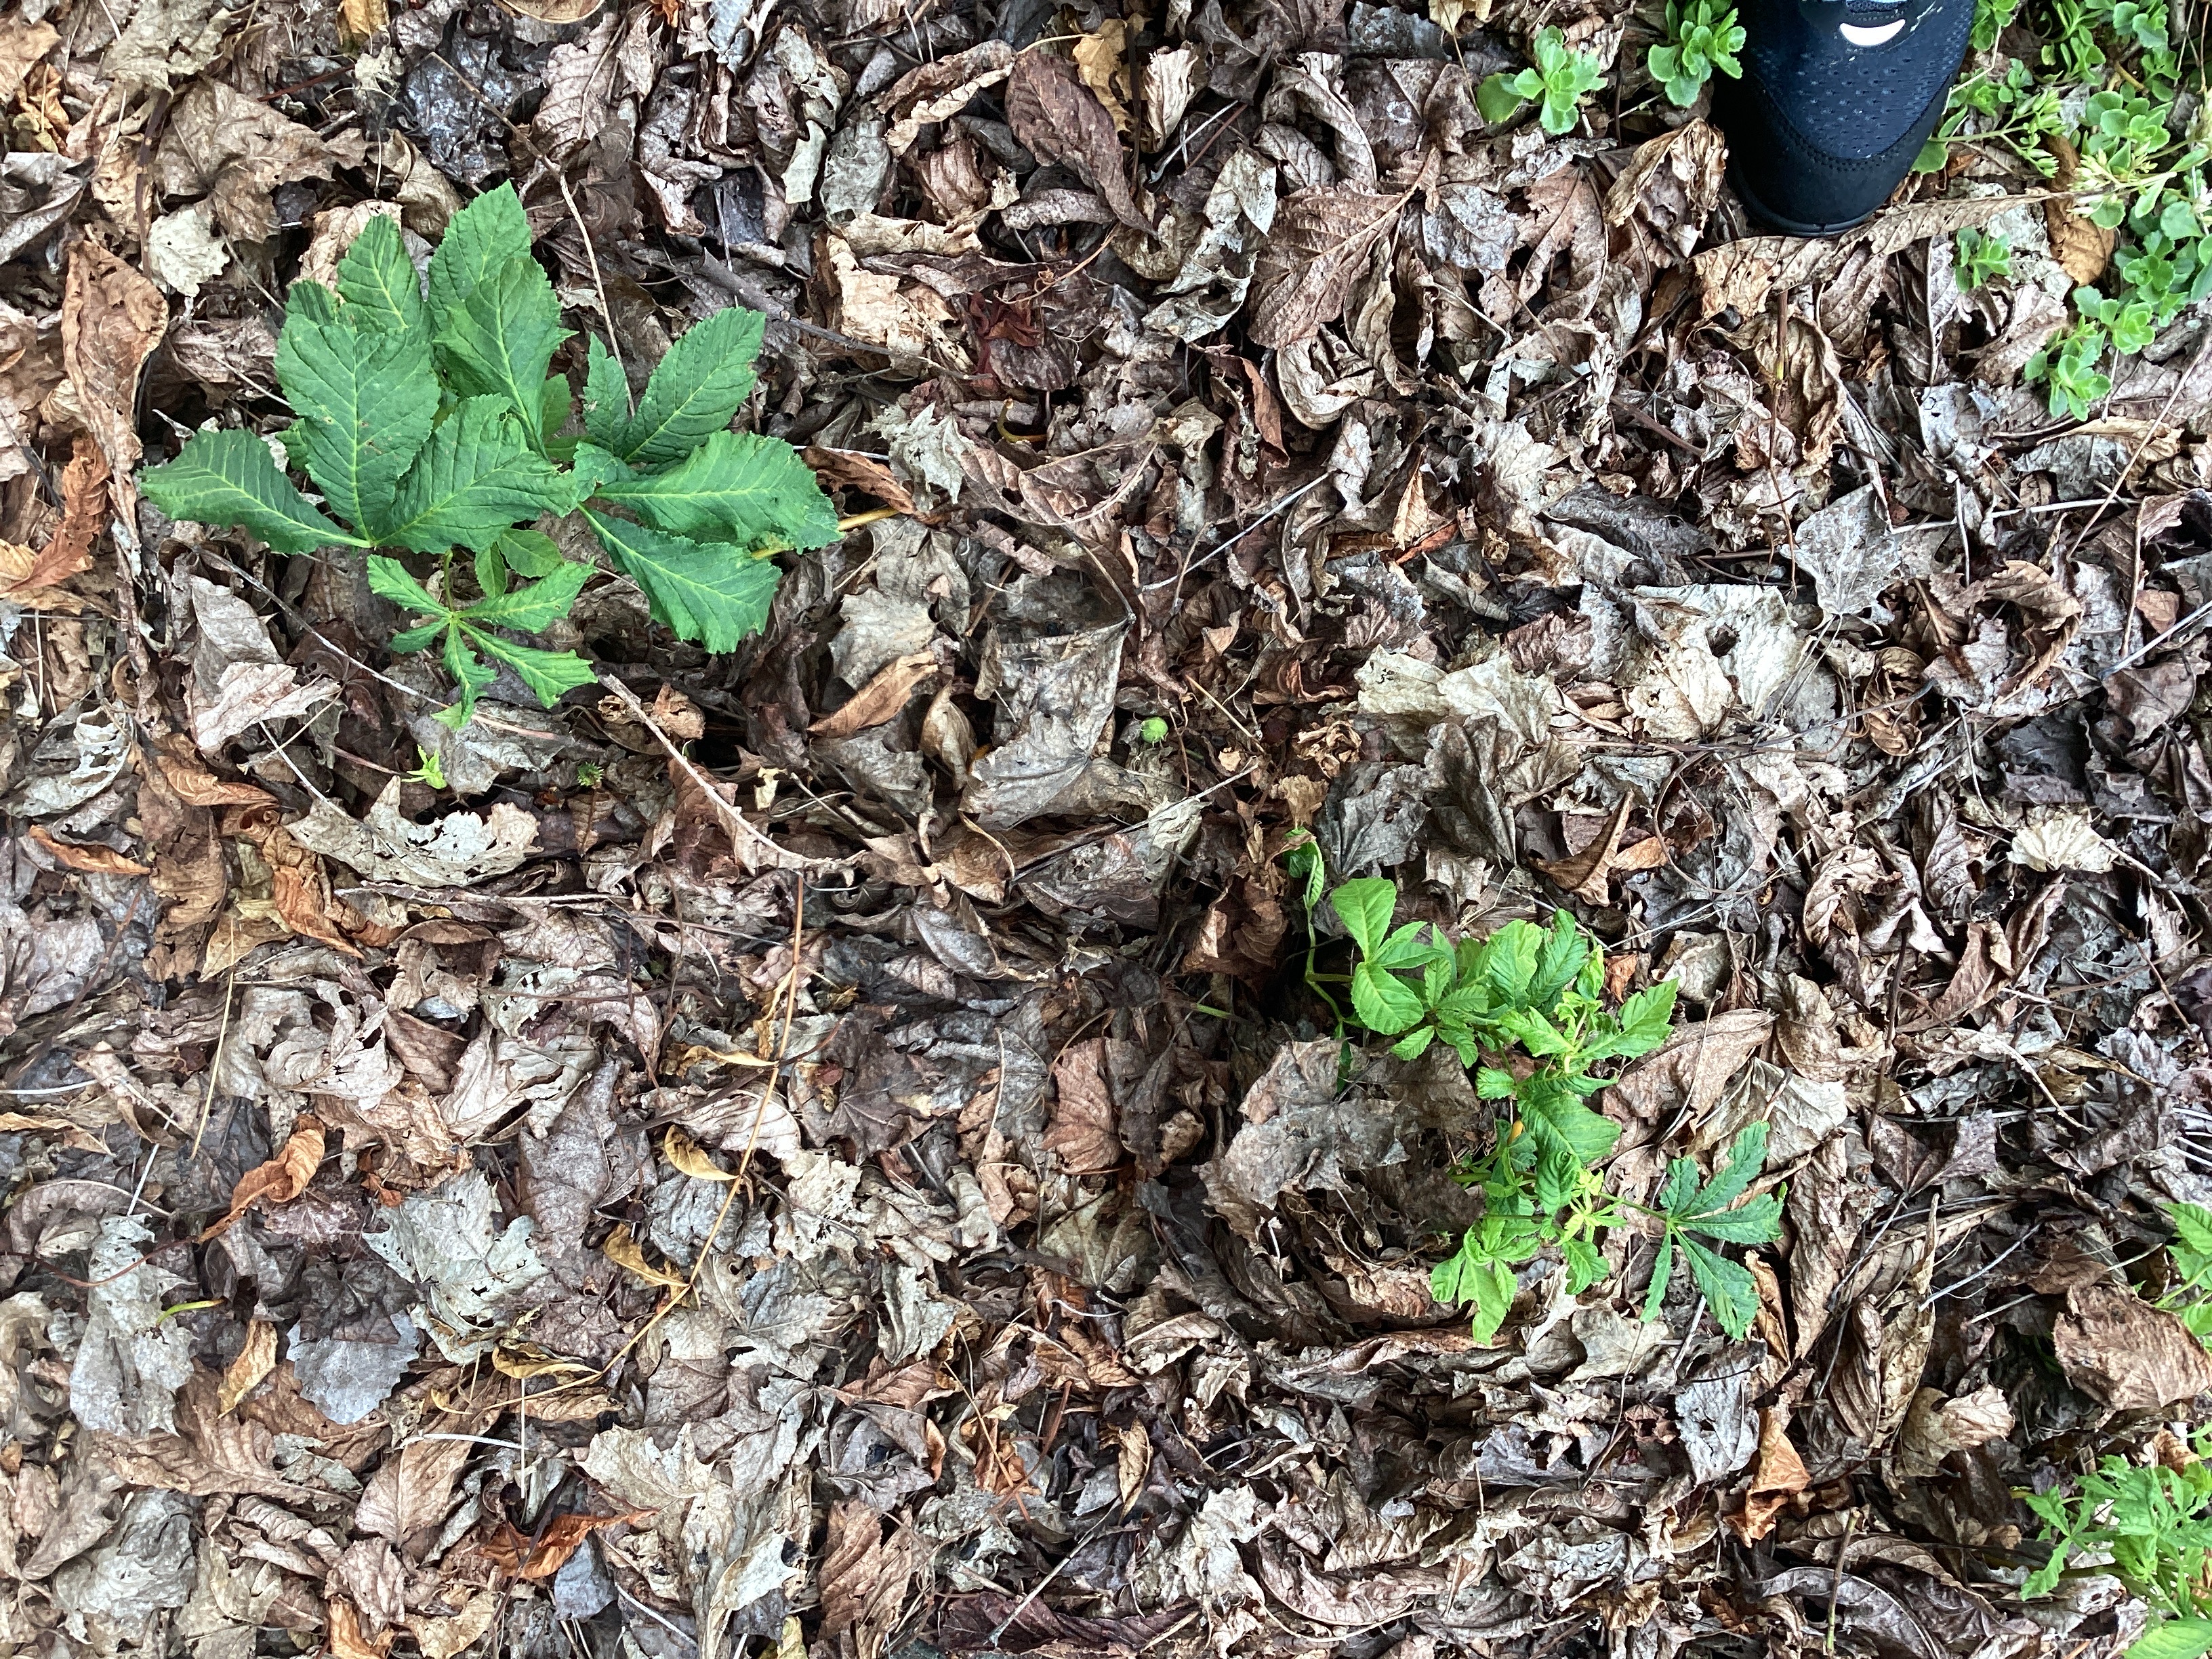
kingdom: Plantae
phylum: Tracheophyta
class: Magnoliopsida
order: Sapindales
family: Sapindaceae
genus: Aesculus
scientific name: Aesculus hippocastanum
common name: hestekastanje
